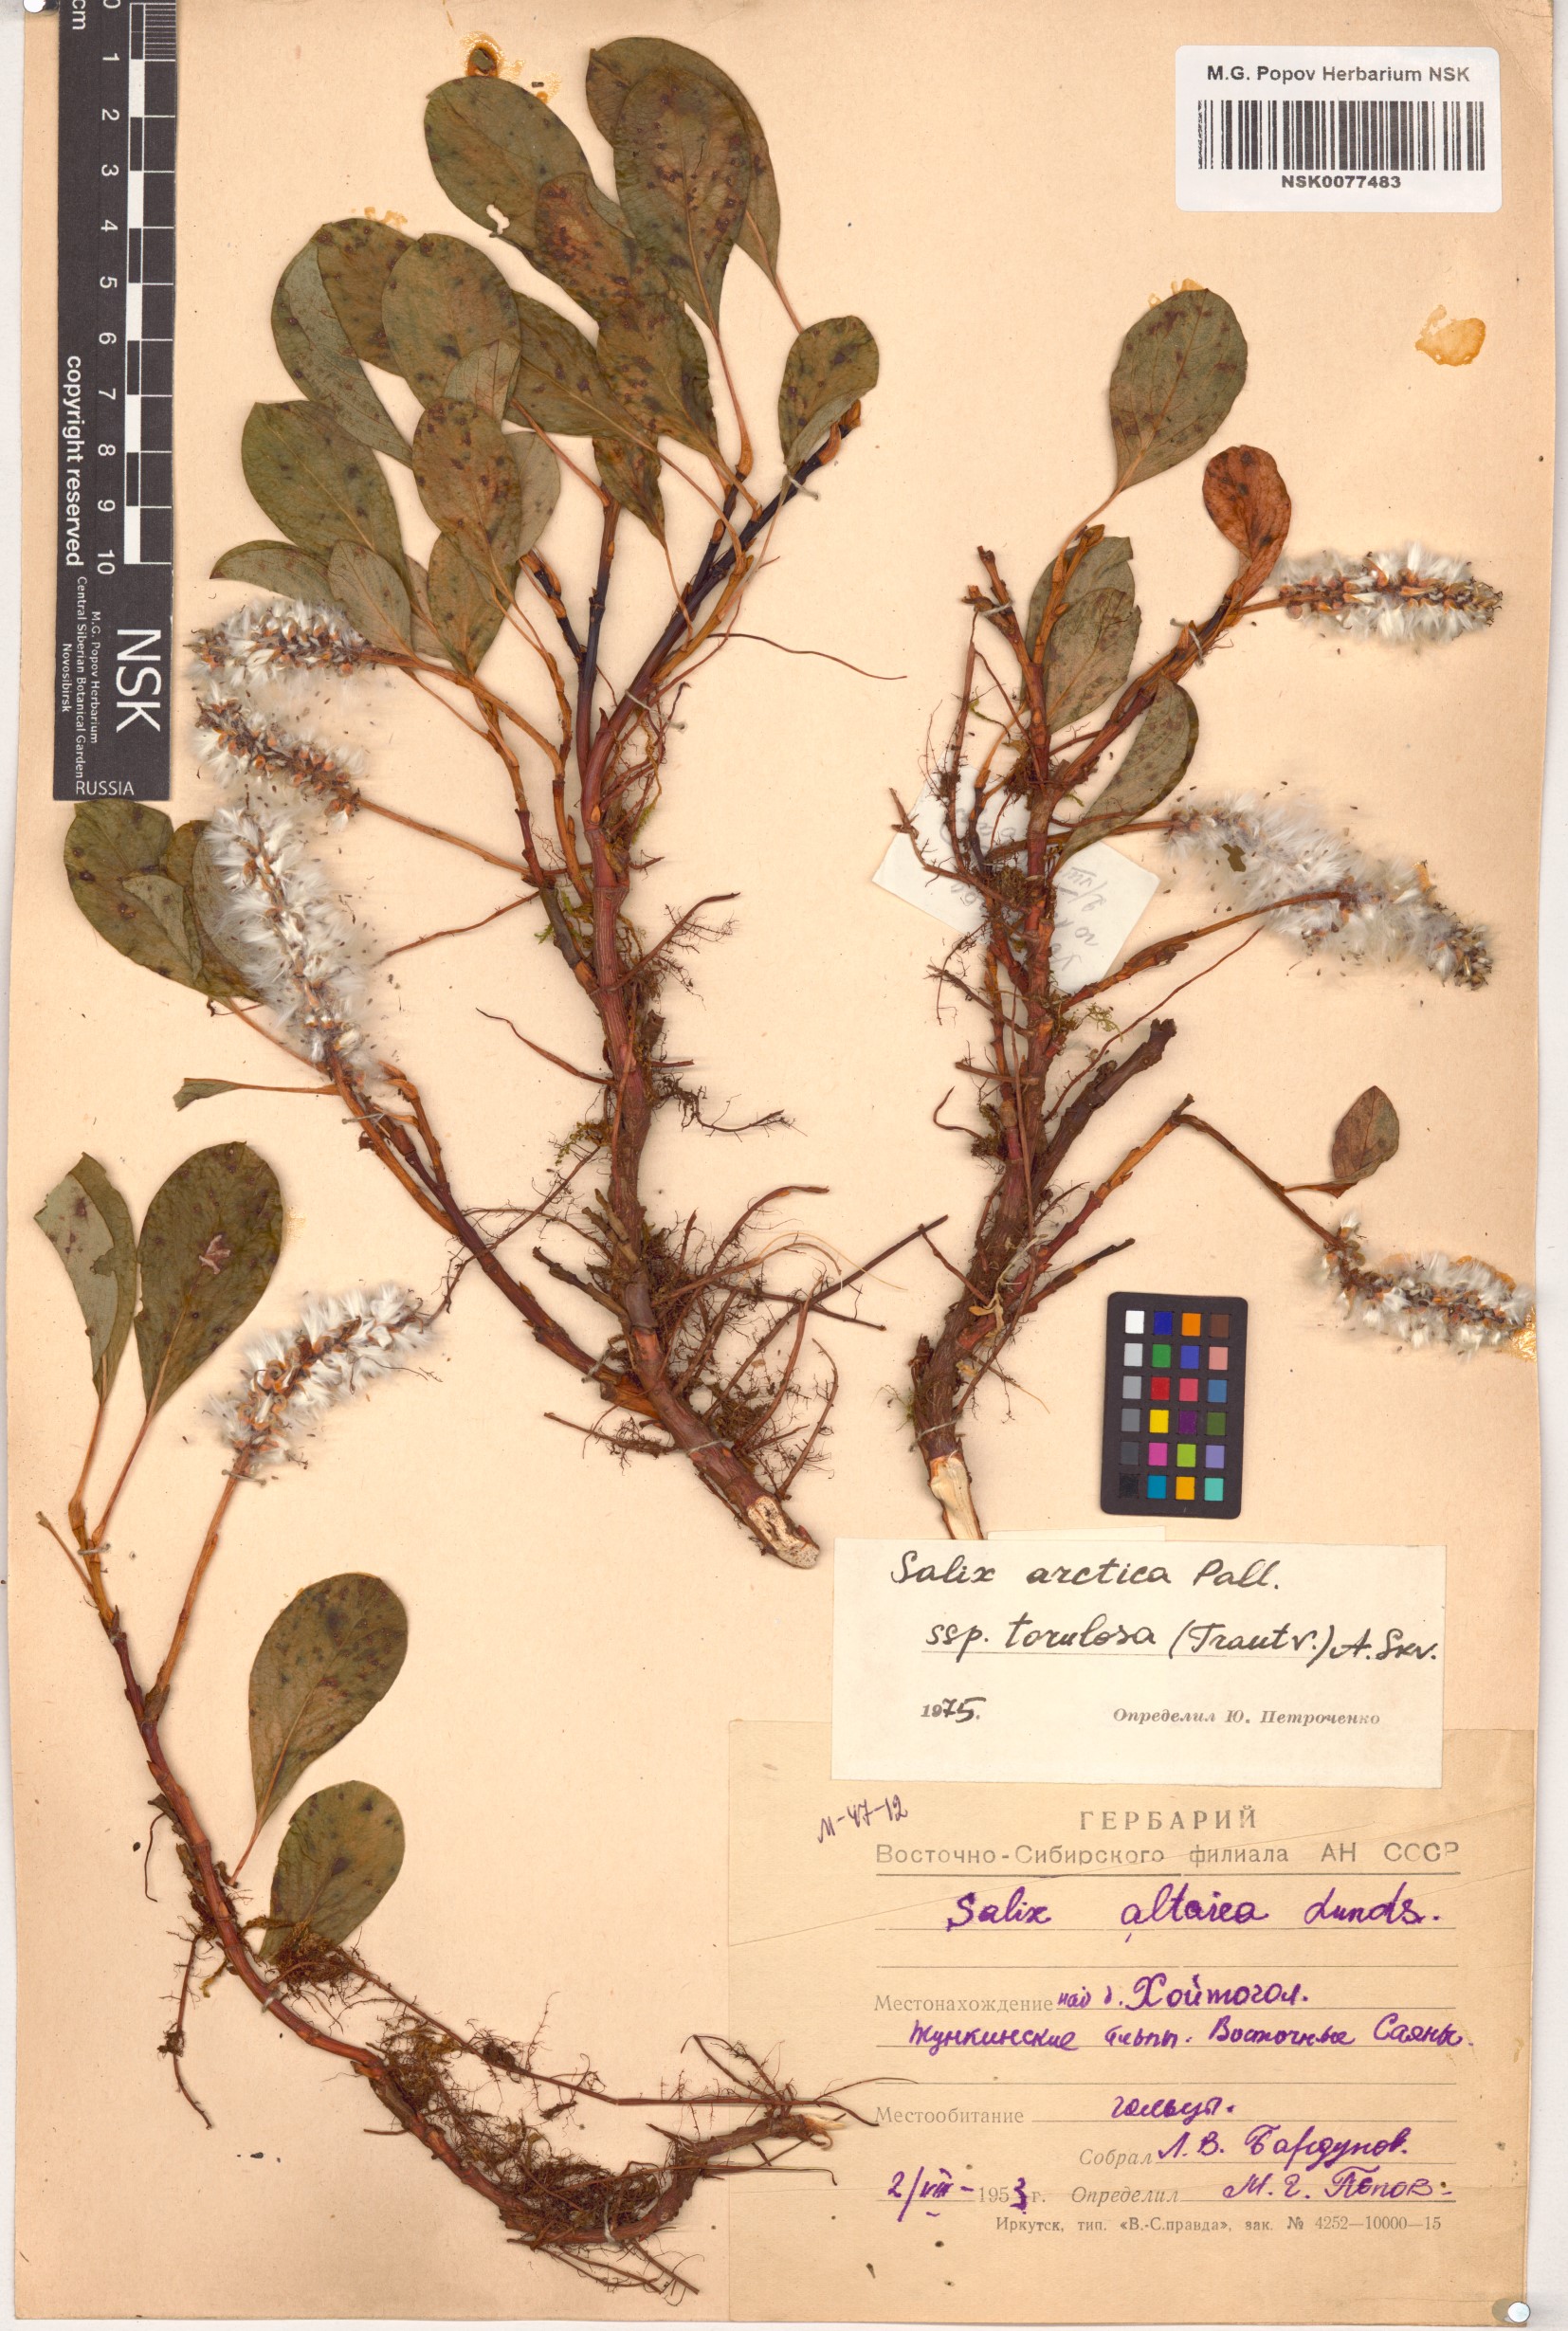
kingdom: Plantae
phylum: Tracheophyta
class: Magnoliopsida
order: Malpighiales
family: Salicaceae
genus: Salix
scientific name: Salix arctica
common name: Arctic willow
